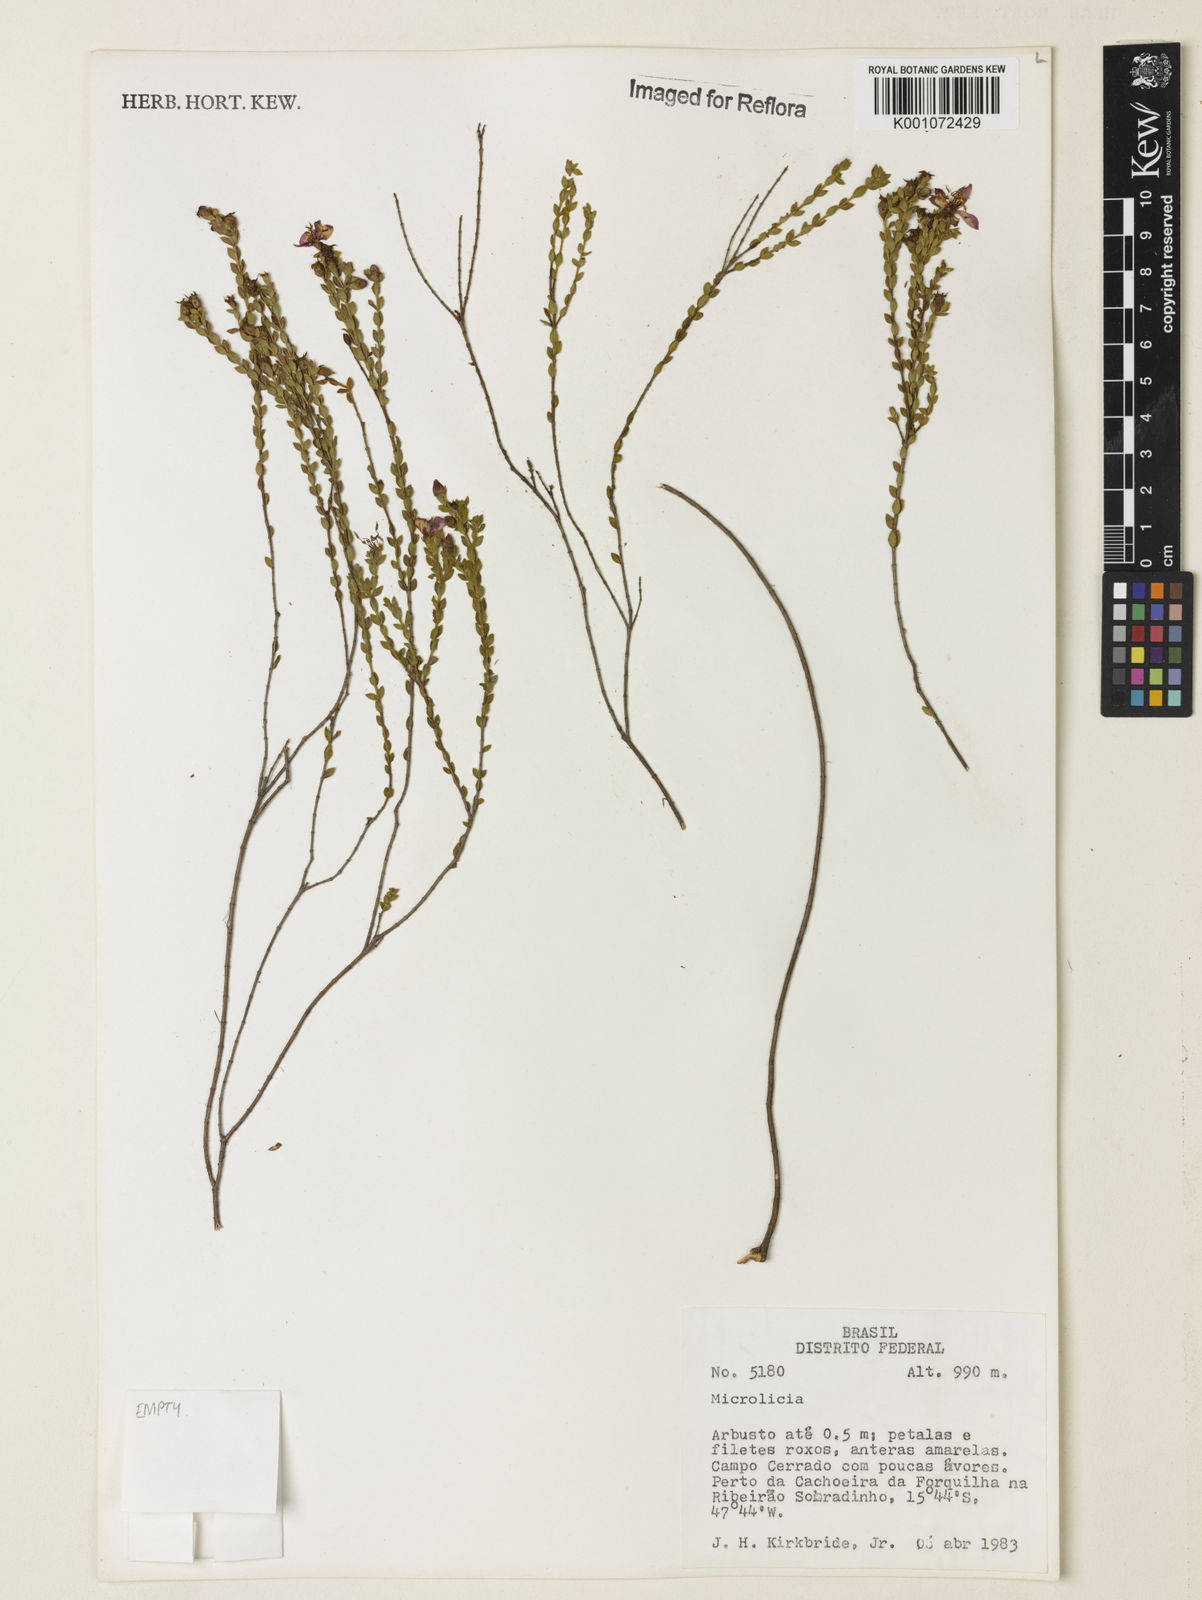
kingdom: Plantae
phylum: Tracheophyta
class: Magnoliopsida
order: Myrtales
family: Melastomataceae
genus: Microlicia
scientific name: Microlicia
